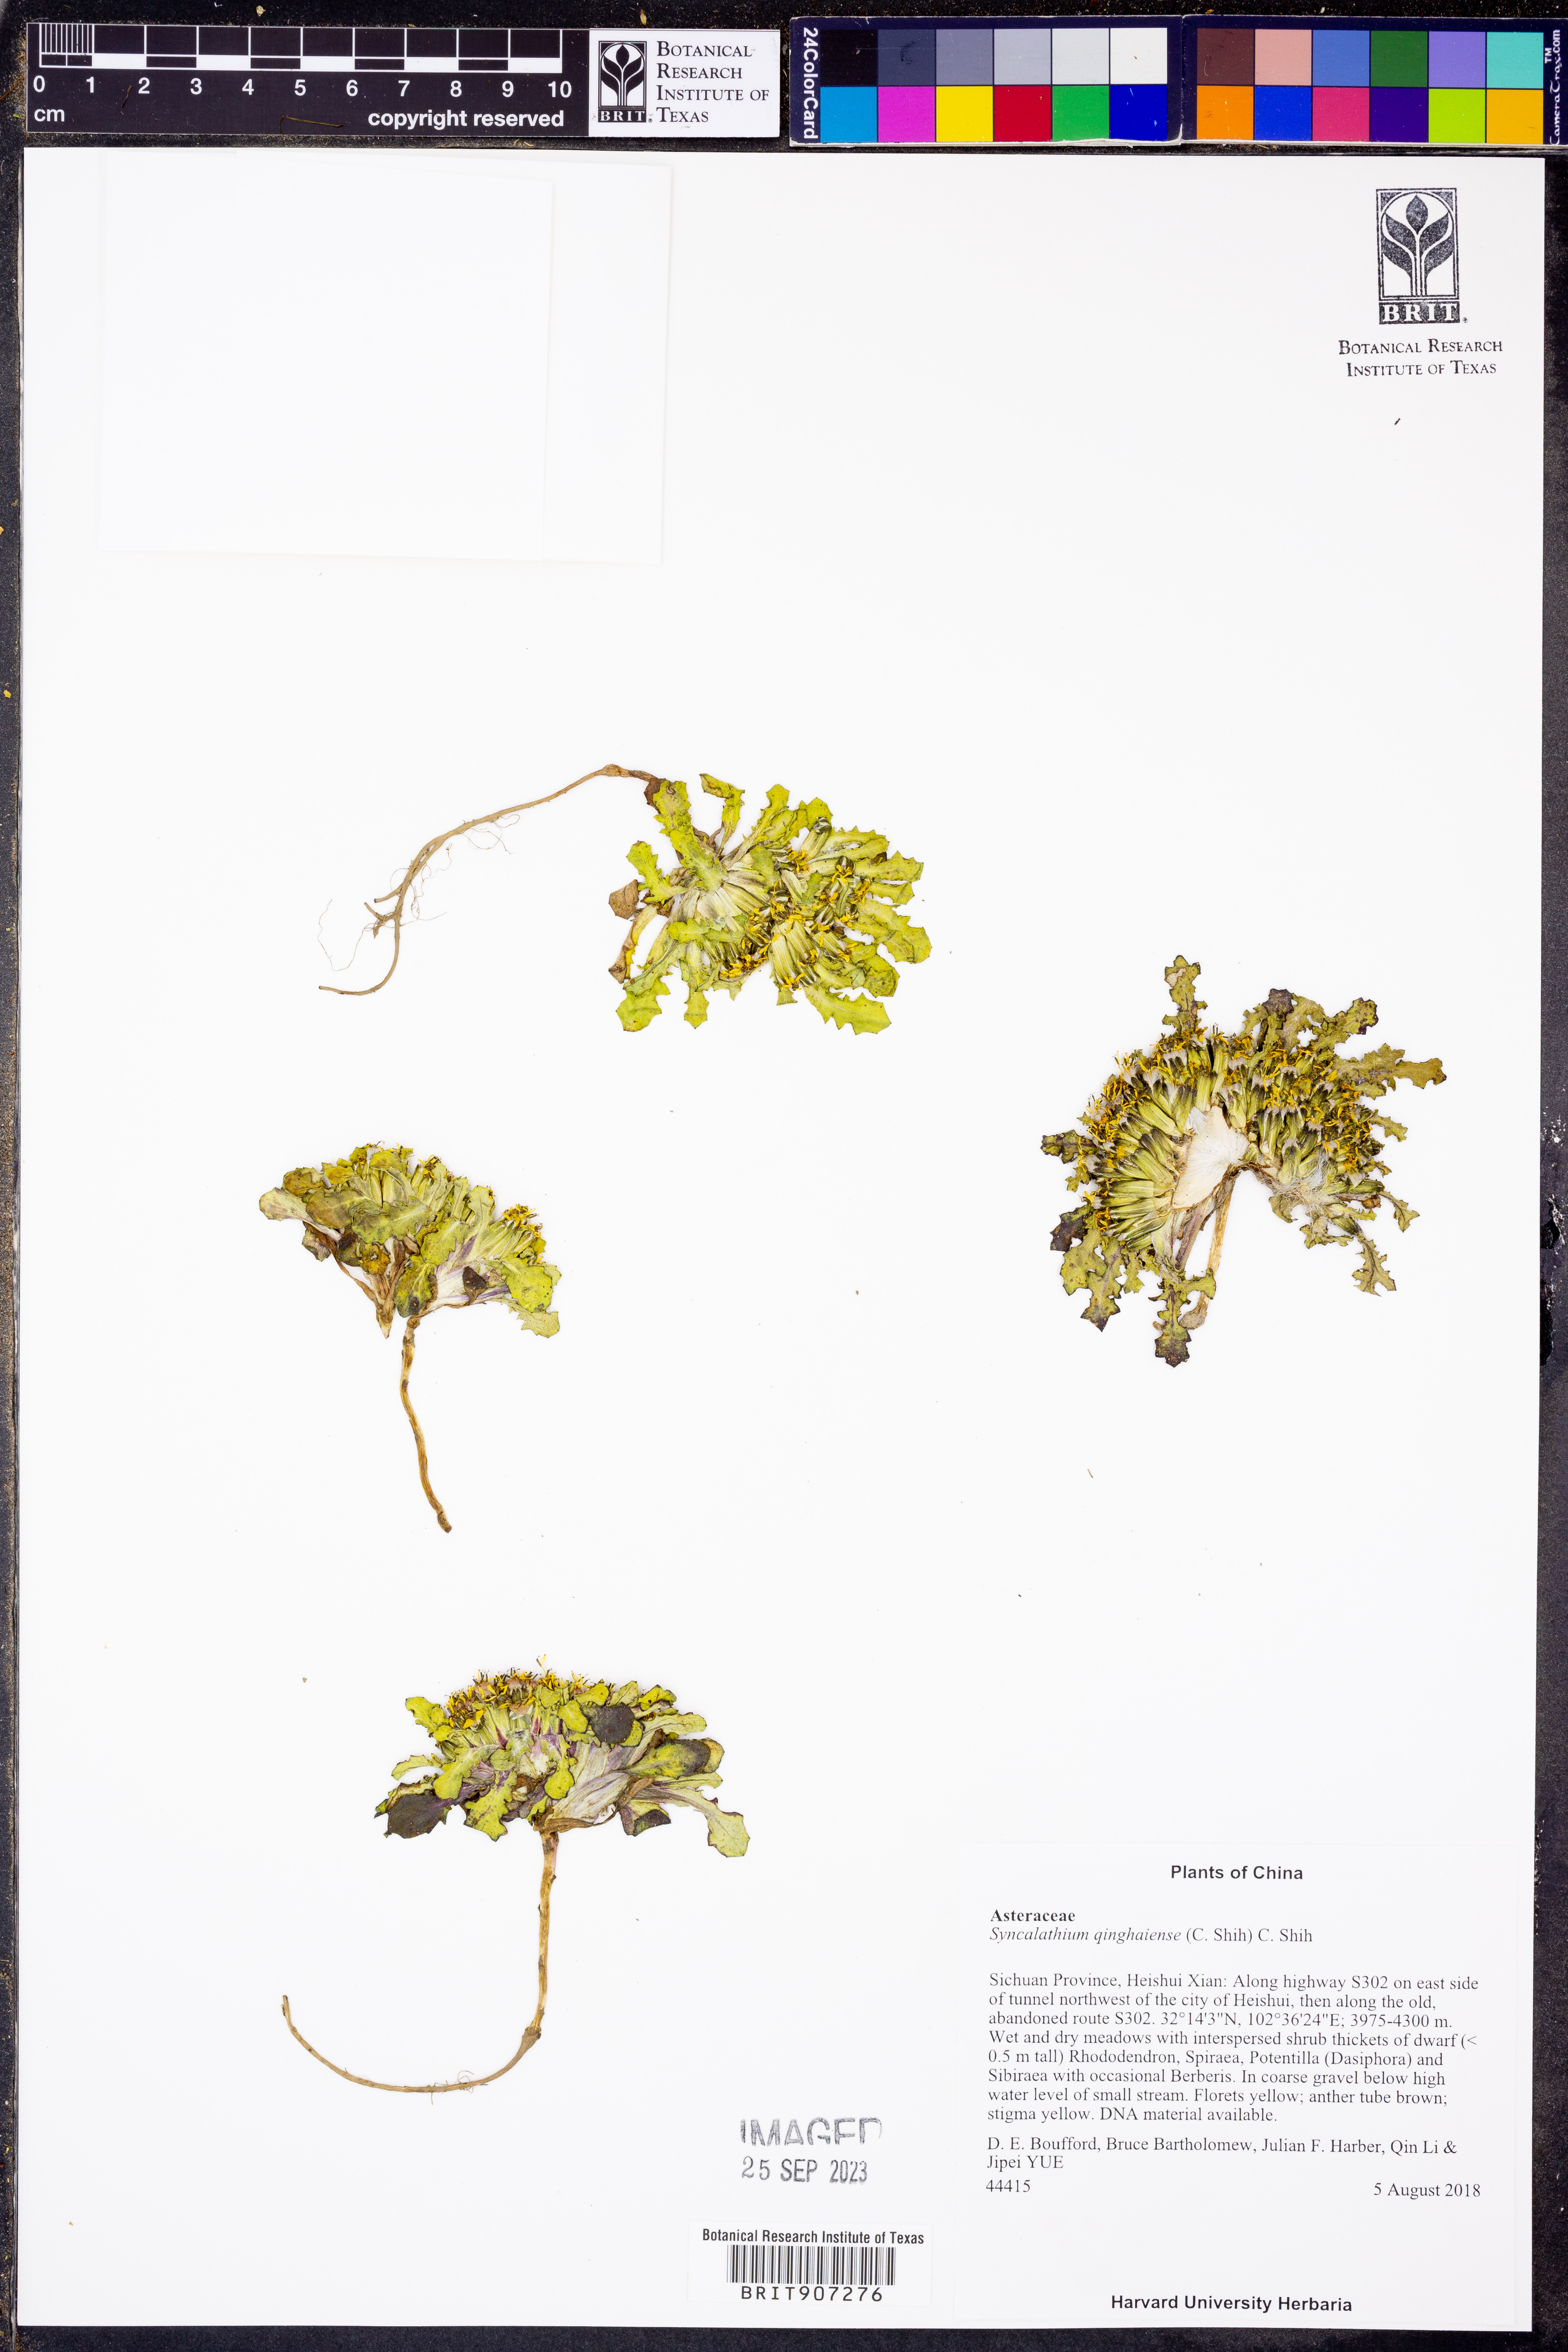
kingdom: Plantae
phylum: Tracheophyta
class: Magnoliopsida
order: Asterales
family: Asteraceae
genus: Syncalathium
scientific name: Syncalathium disciforme
